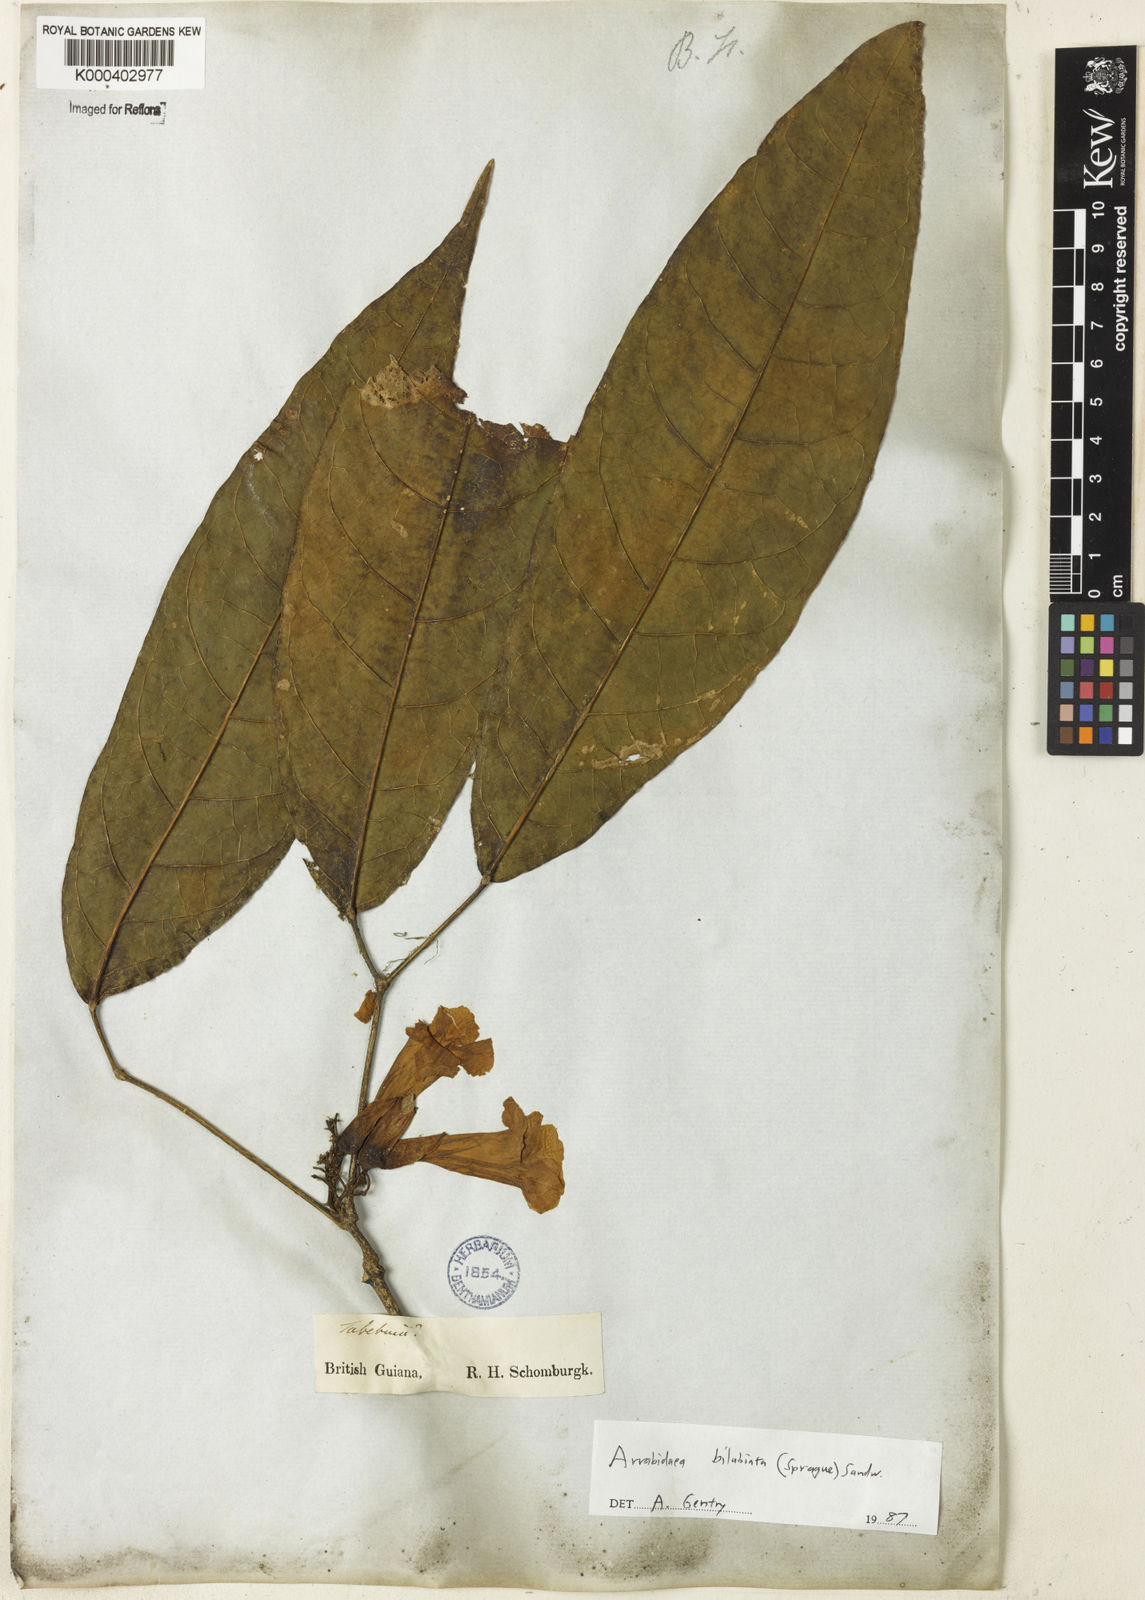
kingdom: Plantae
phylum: Tracheophyta
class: Magnoliopsida
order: Lamiales
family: Bignoniaceae
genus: Tanaecium
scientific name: Tanaecium bilabiatum
